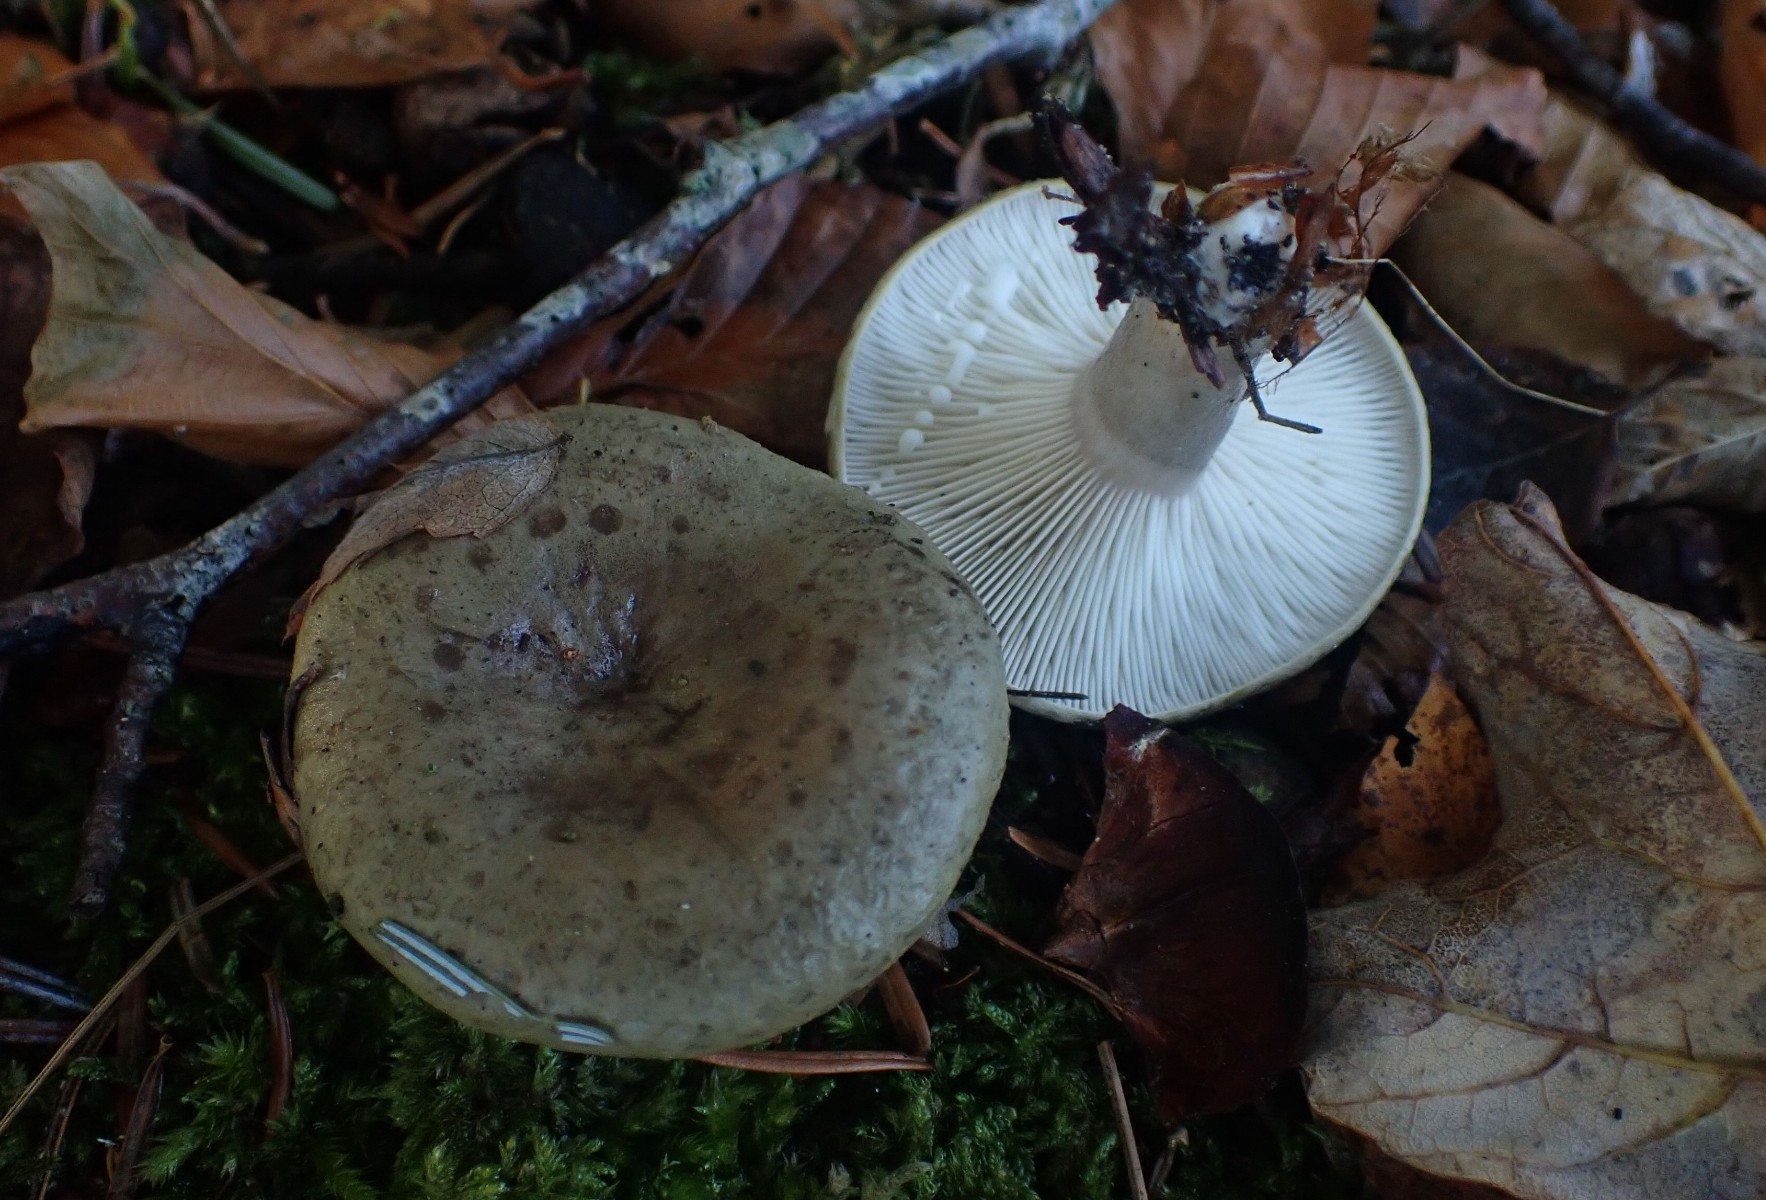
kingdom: Fungi
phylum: Basidiomycota
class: Agaricomycetes
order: Russulales
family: Russulaceae
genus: Lactarius
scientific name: Lactarius blennius
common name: dråbeplettet mælkehat
